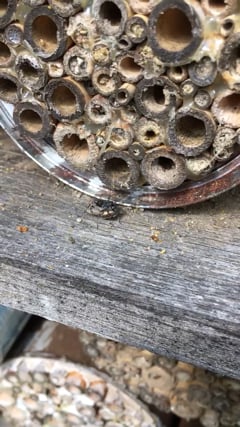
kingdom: Animalia
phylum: Arthropoda
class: Insecta
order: Hymenoptera
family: Pompilidae
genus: Auplopus
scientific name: Auplopus carbonarius
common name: Spider wasp
